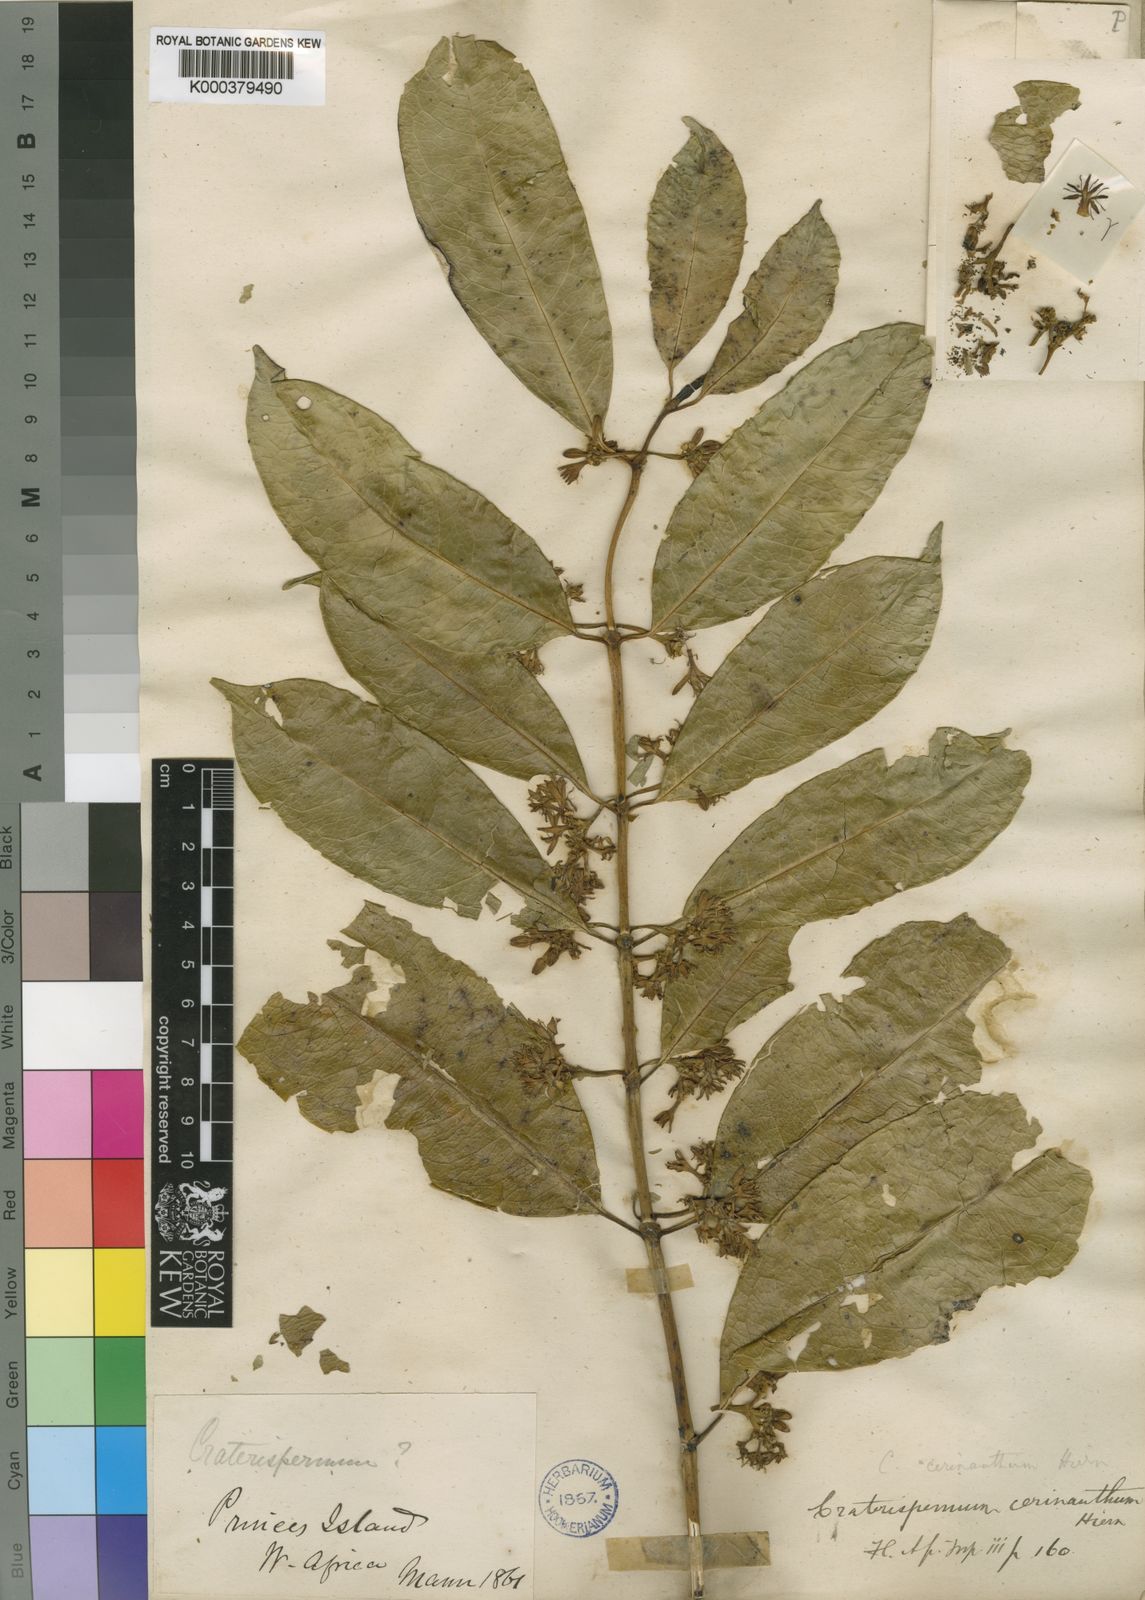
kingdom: Plantae
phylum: Tracheophyta
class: Magnoliopsida
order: Gentianales
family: Rubiaceae
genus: Craterispermum
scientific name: Craterispermum cerinanthum
